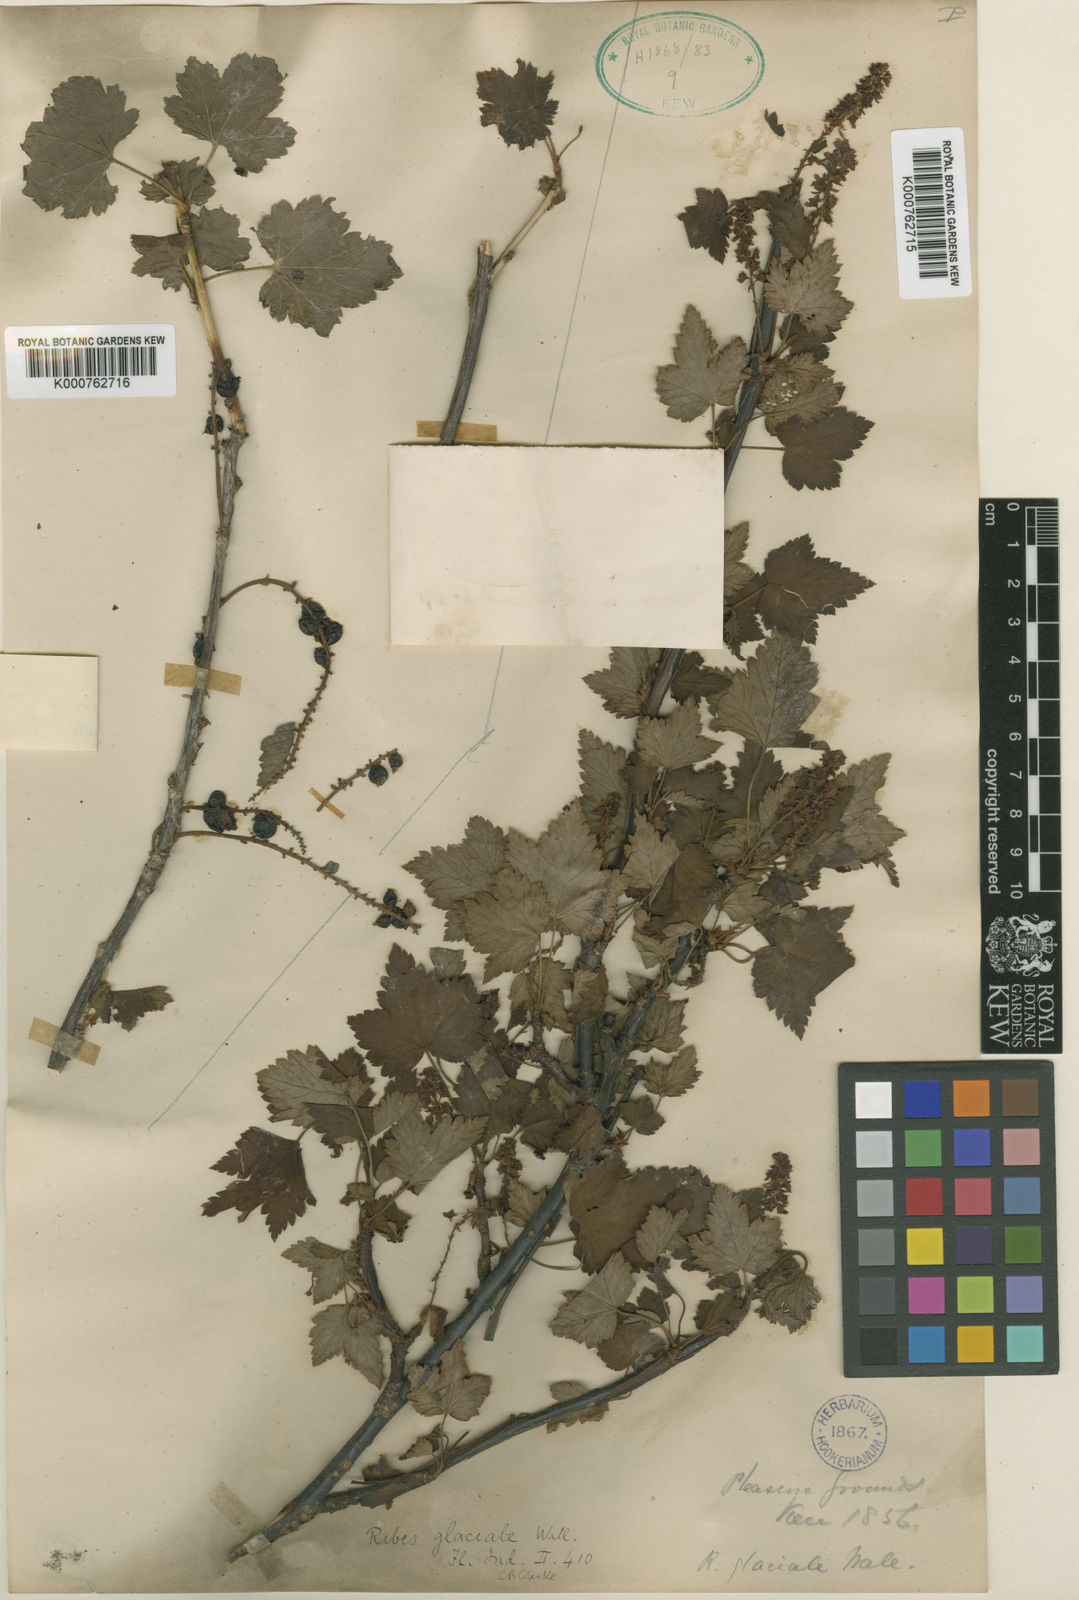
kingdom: Plantae
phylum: Tracheophyta
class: Magnoliopsida
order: Saxifragales
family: Grossulariaceae
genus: Ribes
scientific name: Ribes himalense
